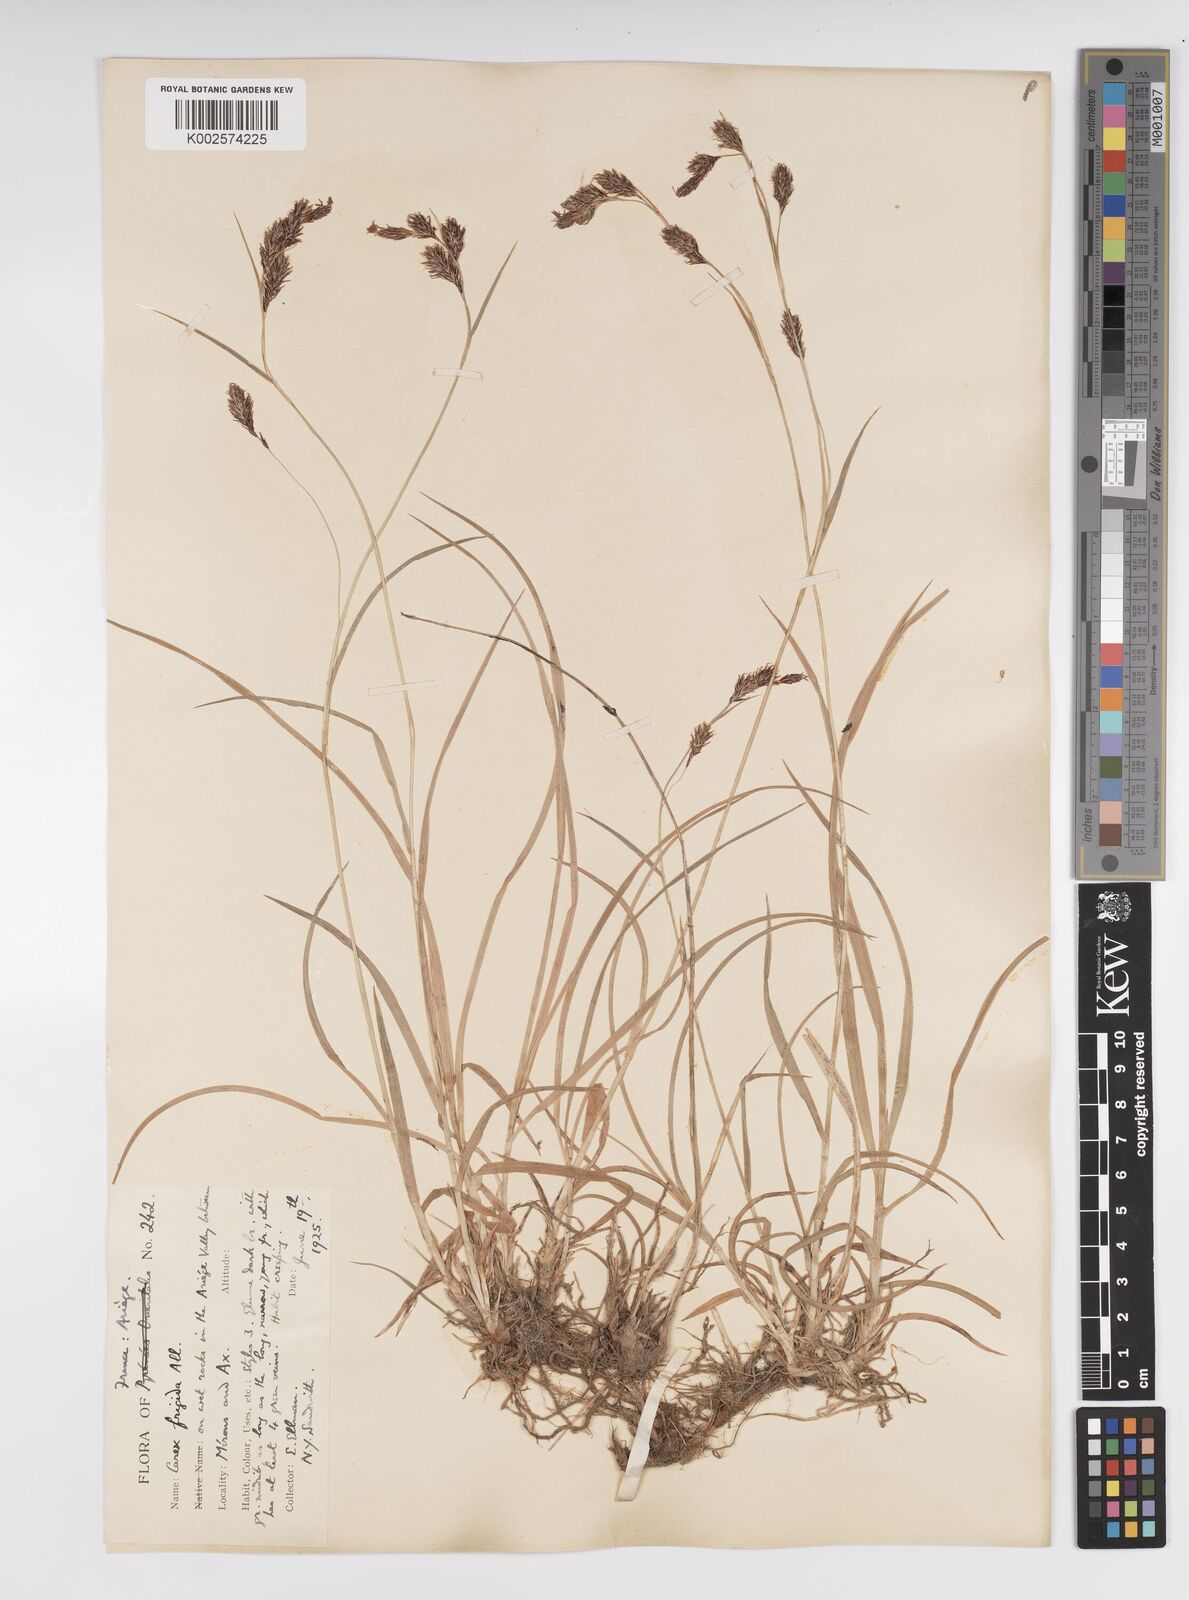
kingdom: Plantae
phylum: Tracheophyta
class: Liliopsida
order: Poales
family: Cyperaceae
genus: Carex
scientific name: Carex frigida
